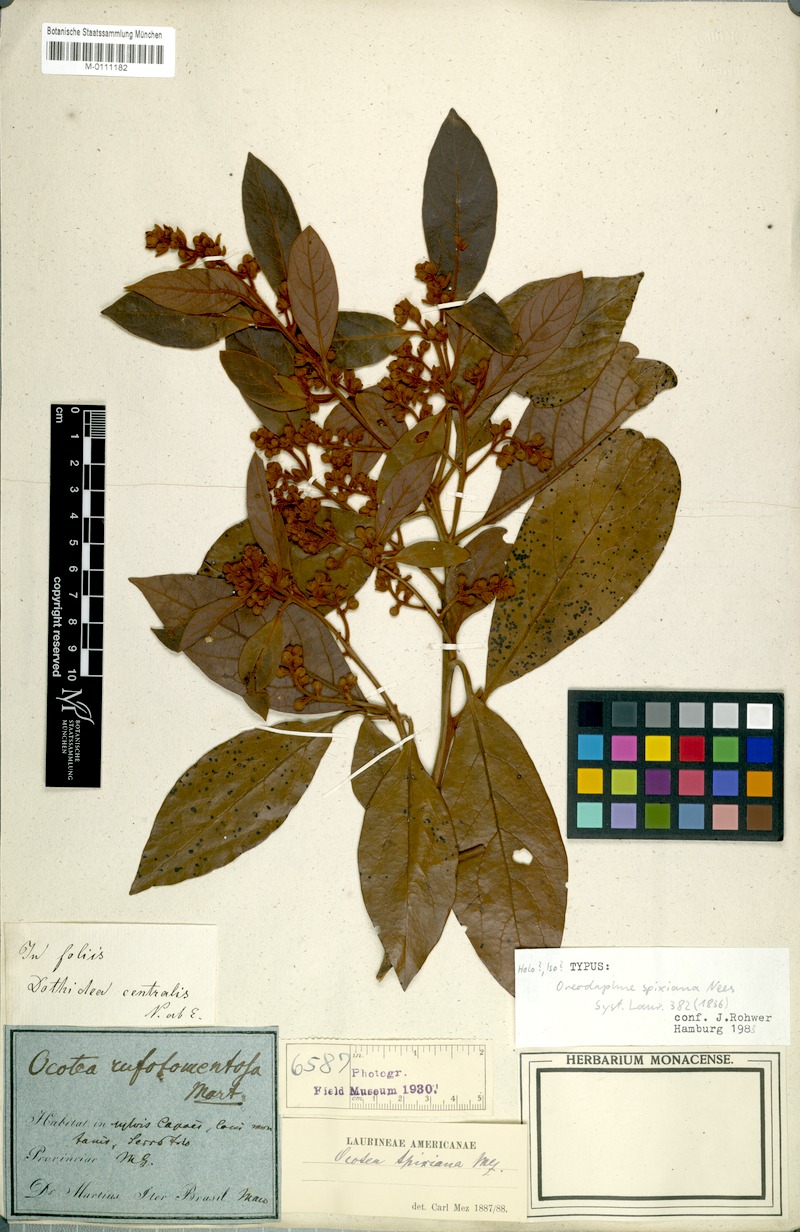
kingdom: Plantae
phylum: Tracheophyta
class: Magnoliopsida
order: Laurales
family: Lauraceae
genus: Ocotea
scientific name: Ocotea spixiana
